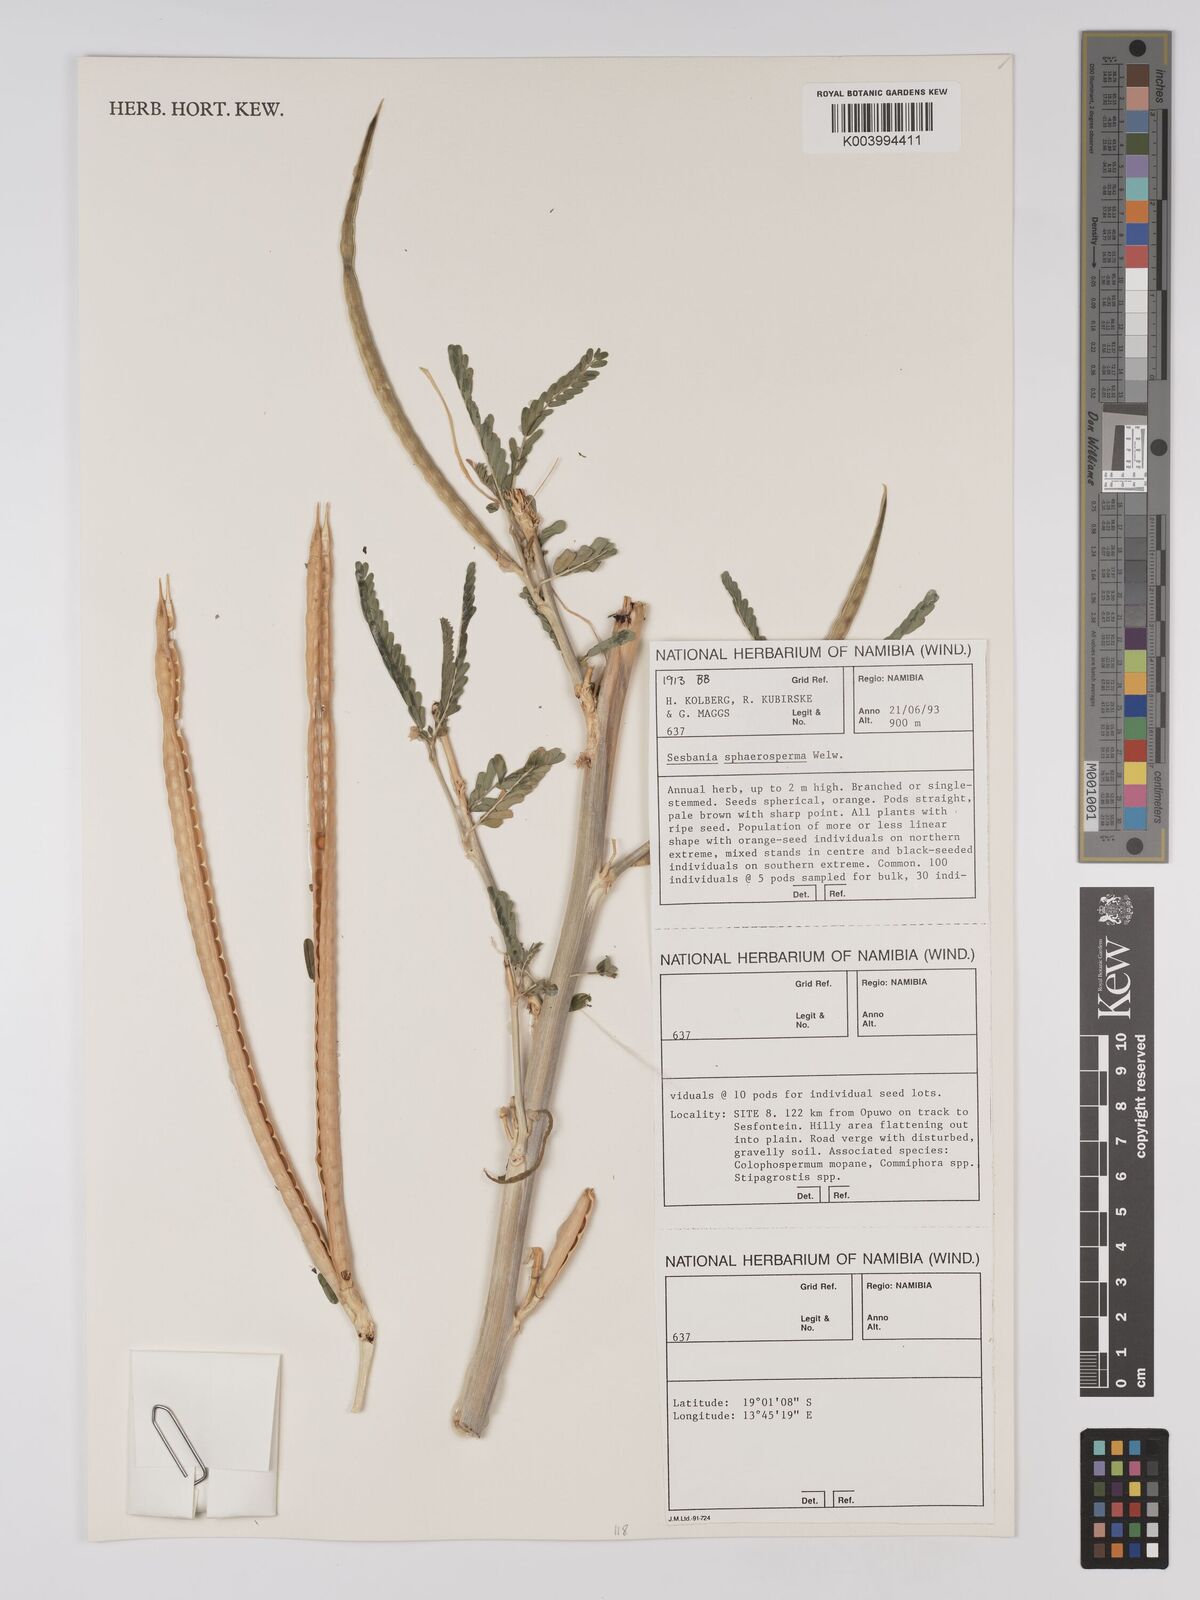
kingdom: Plantae
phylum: Tracheophyta
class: Magnoliopsida
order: Fabales
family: Fabaceae
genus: Sesbania
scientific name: Sesbania sphaerocarpa
